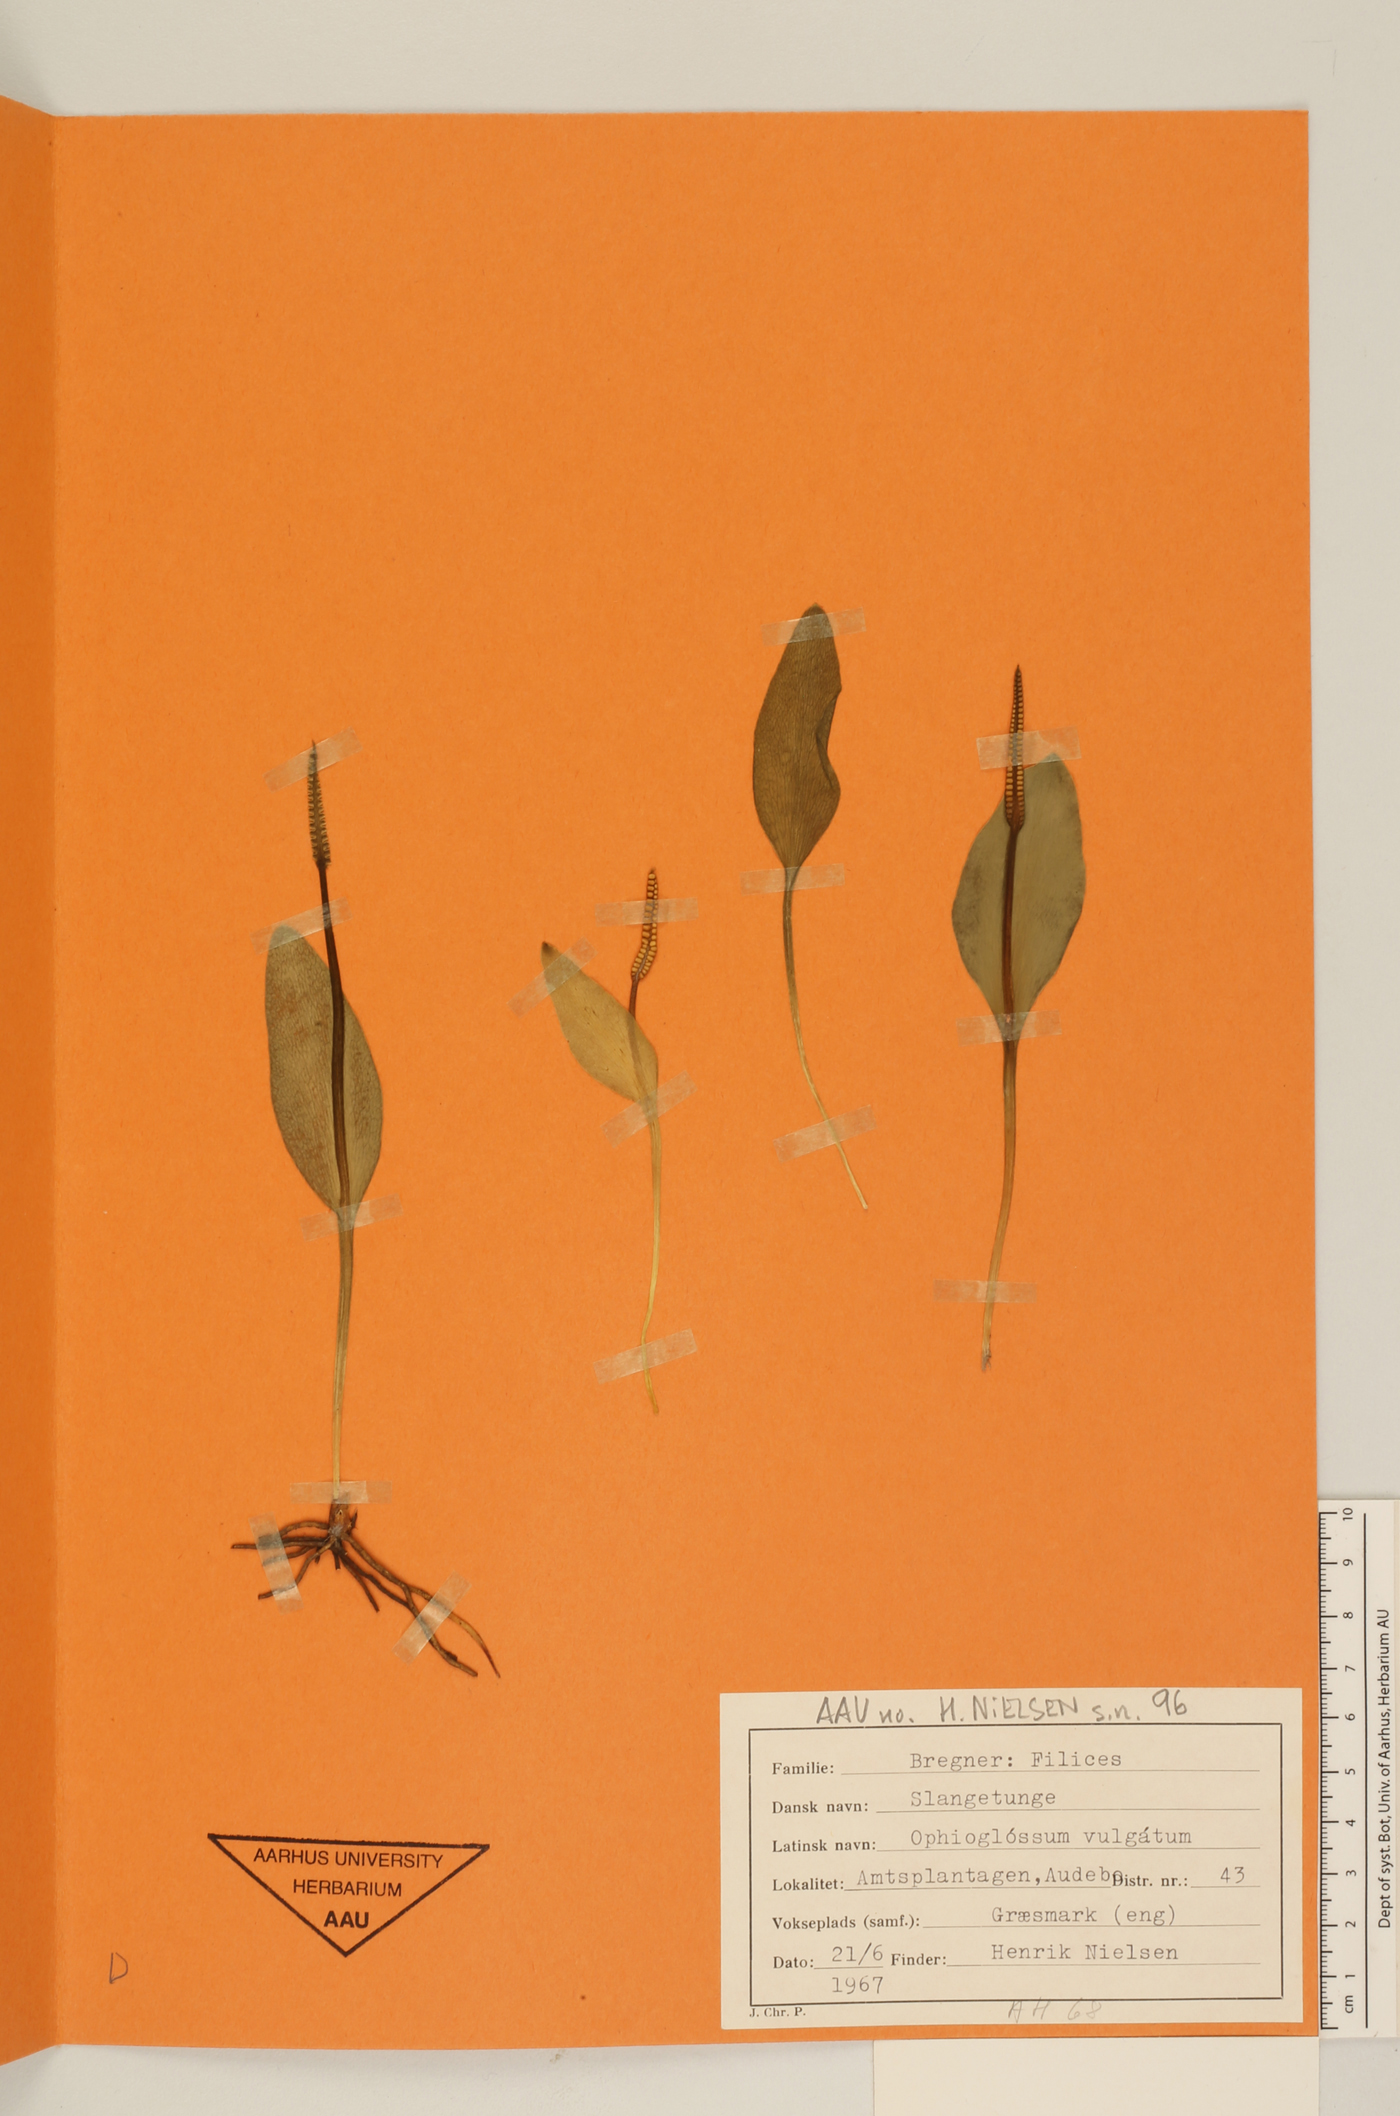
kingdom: Plantae
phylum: Tracheophyta
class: Polypodiopsida
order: Ophioglossales
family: Ophioglossaceae
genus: Ophioglossum
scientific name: Ophioglossum vulgatum
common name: Adder's-tongue
